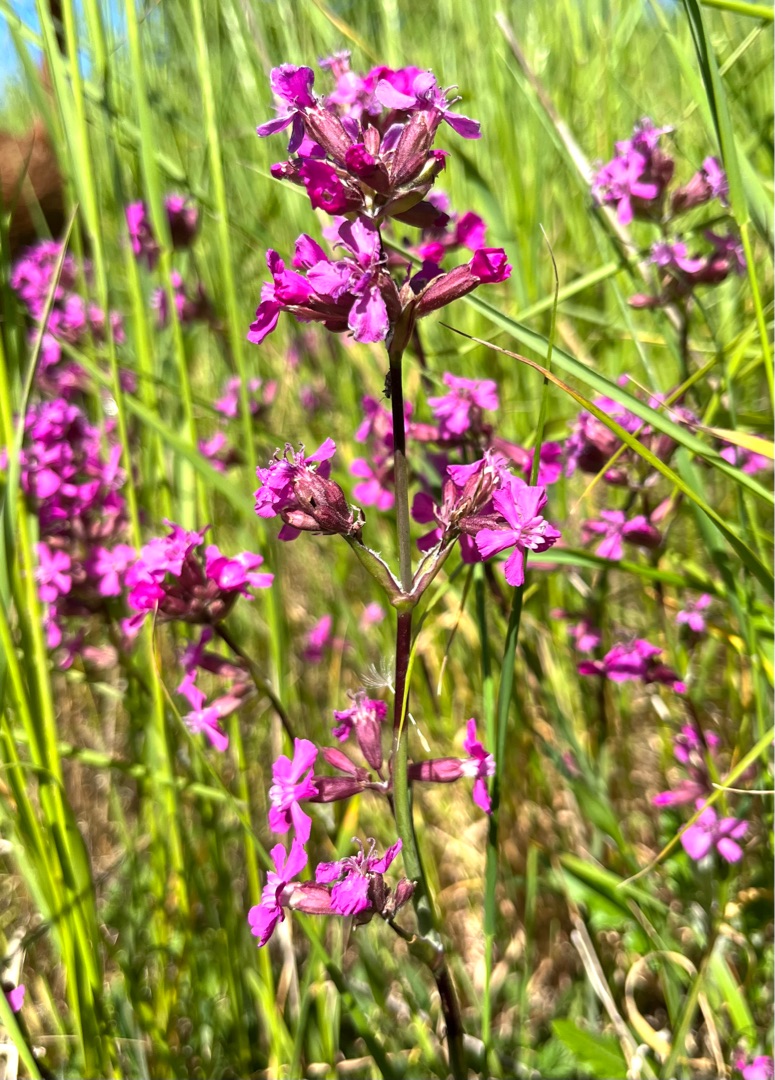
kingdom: Plantae
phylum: Tracheophyta
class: Magnoliopsida
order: Caryophyllales
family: Caryophyllaceae
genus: Viscaria
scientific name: Viscaria vulgaris
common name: Tjærenellike
